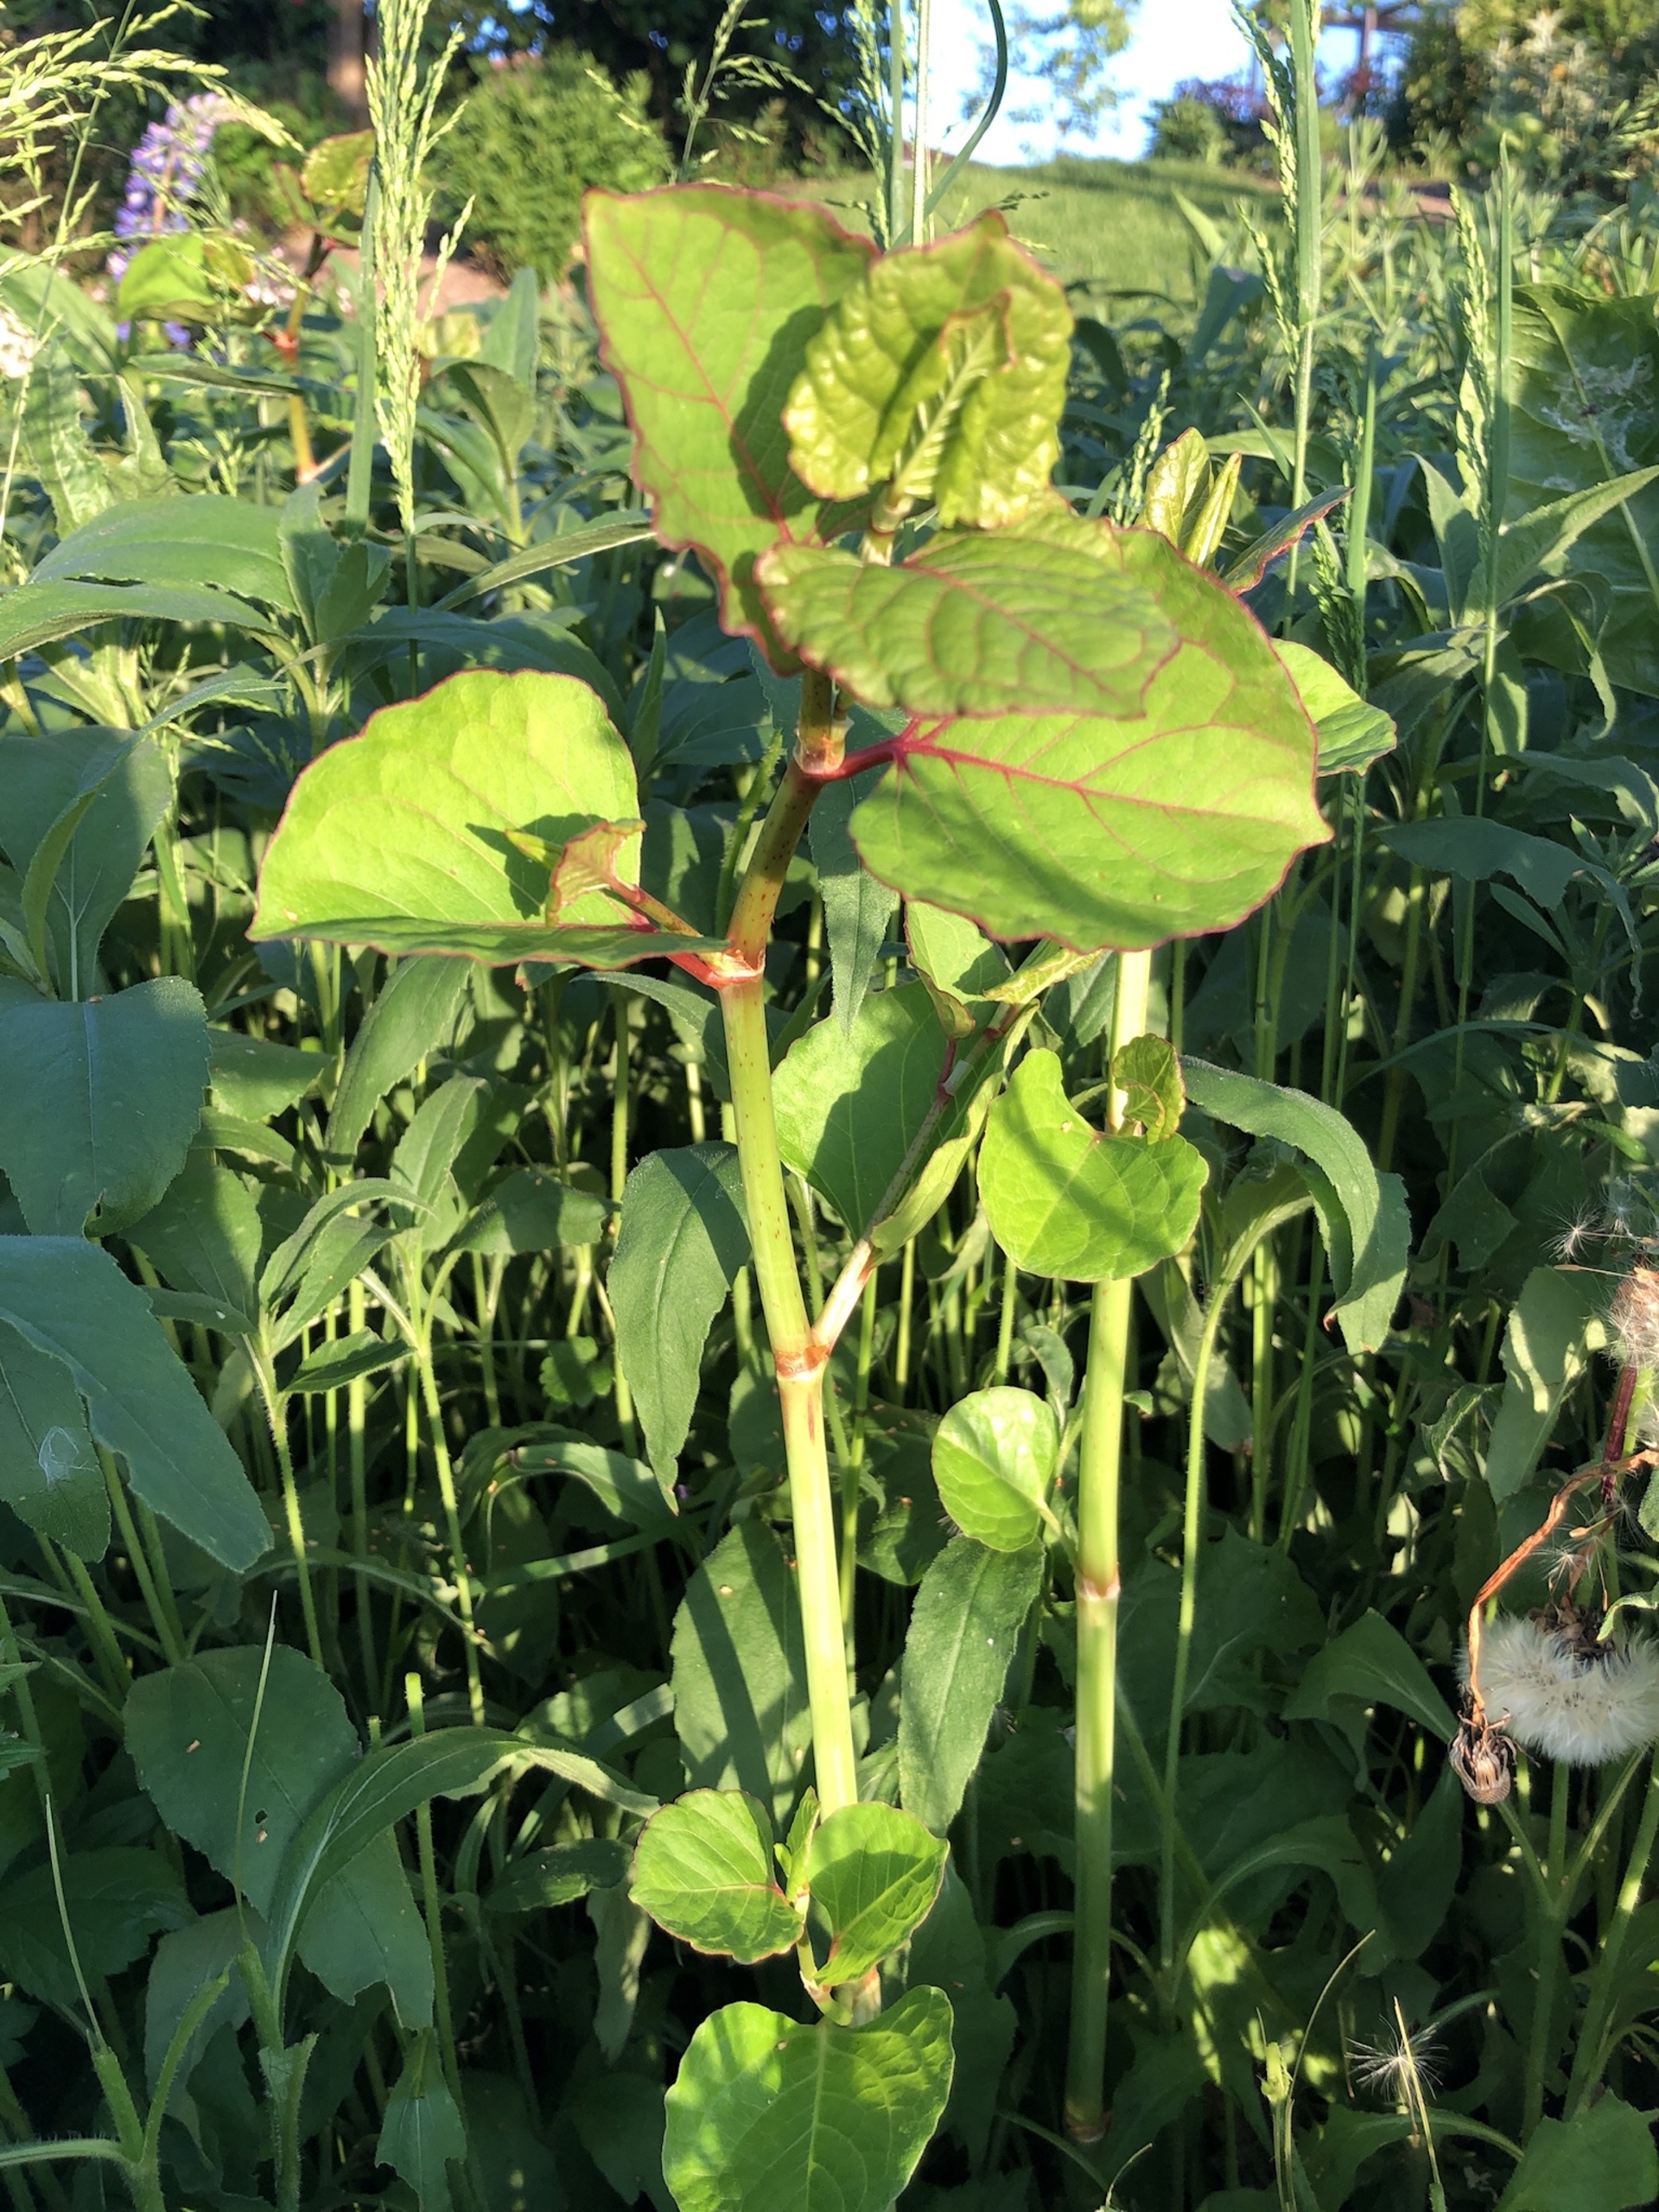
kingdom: Plantae
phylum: Tracheophyta
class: Magnoliopsida
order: Caryophyllales
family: Polygonaceae
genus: Reynoutria
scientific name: Reynoutria bohemica
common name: Hybrid-pileurt
